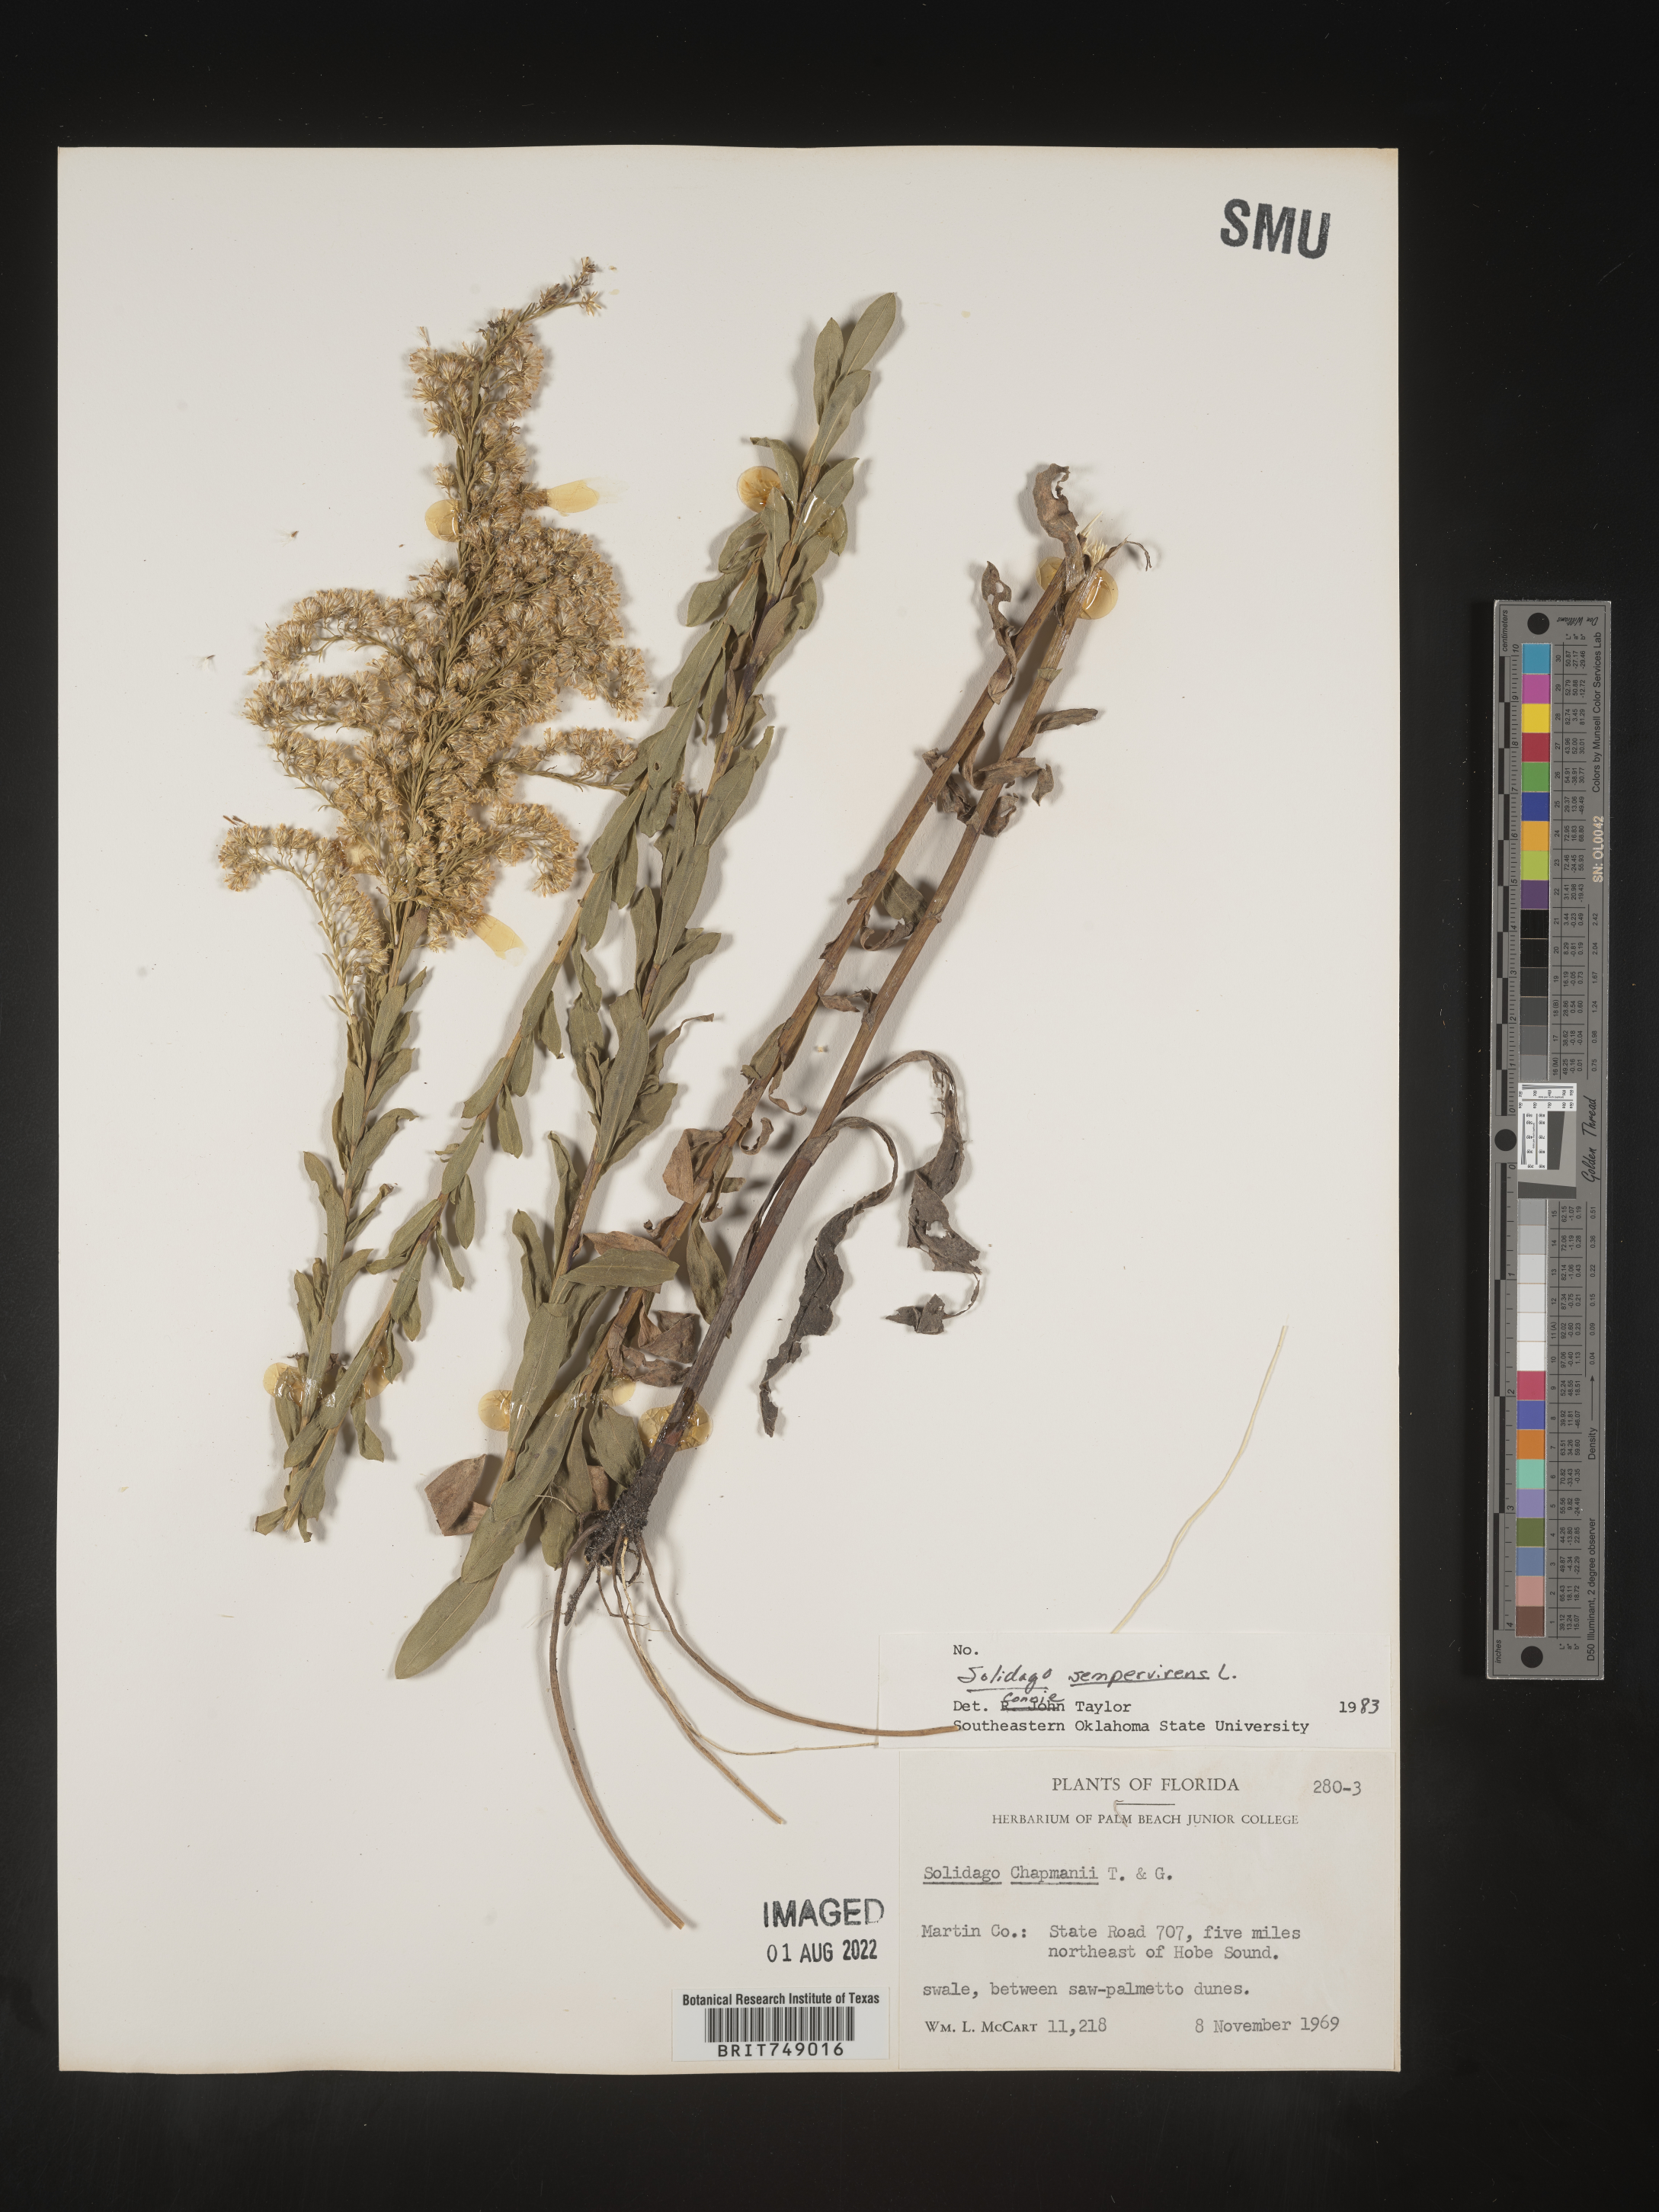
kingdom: Plantae
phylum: Tracheophyta
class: Magnoliopsida
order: Asterales
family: Asteraceae
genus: Solidago
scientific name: Solidago sempervirens
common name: Salt-marsh goldenrod
